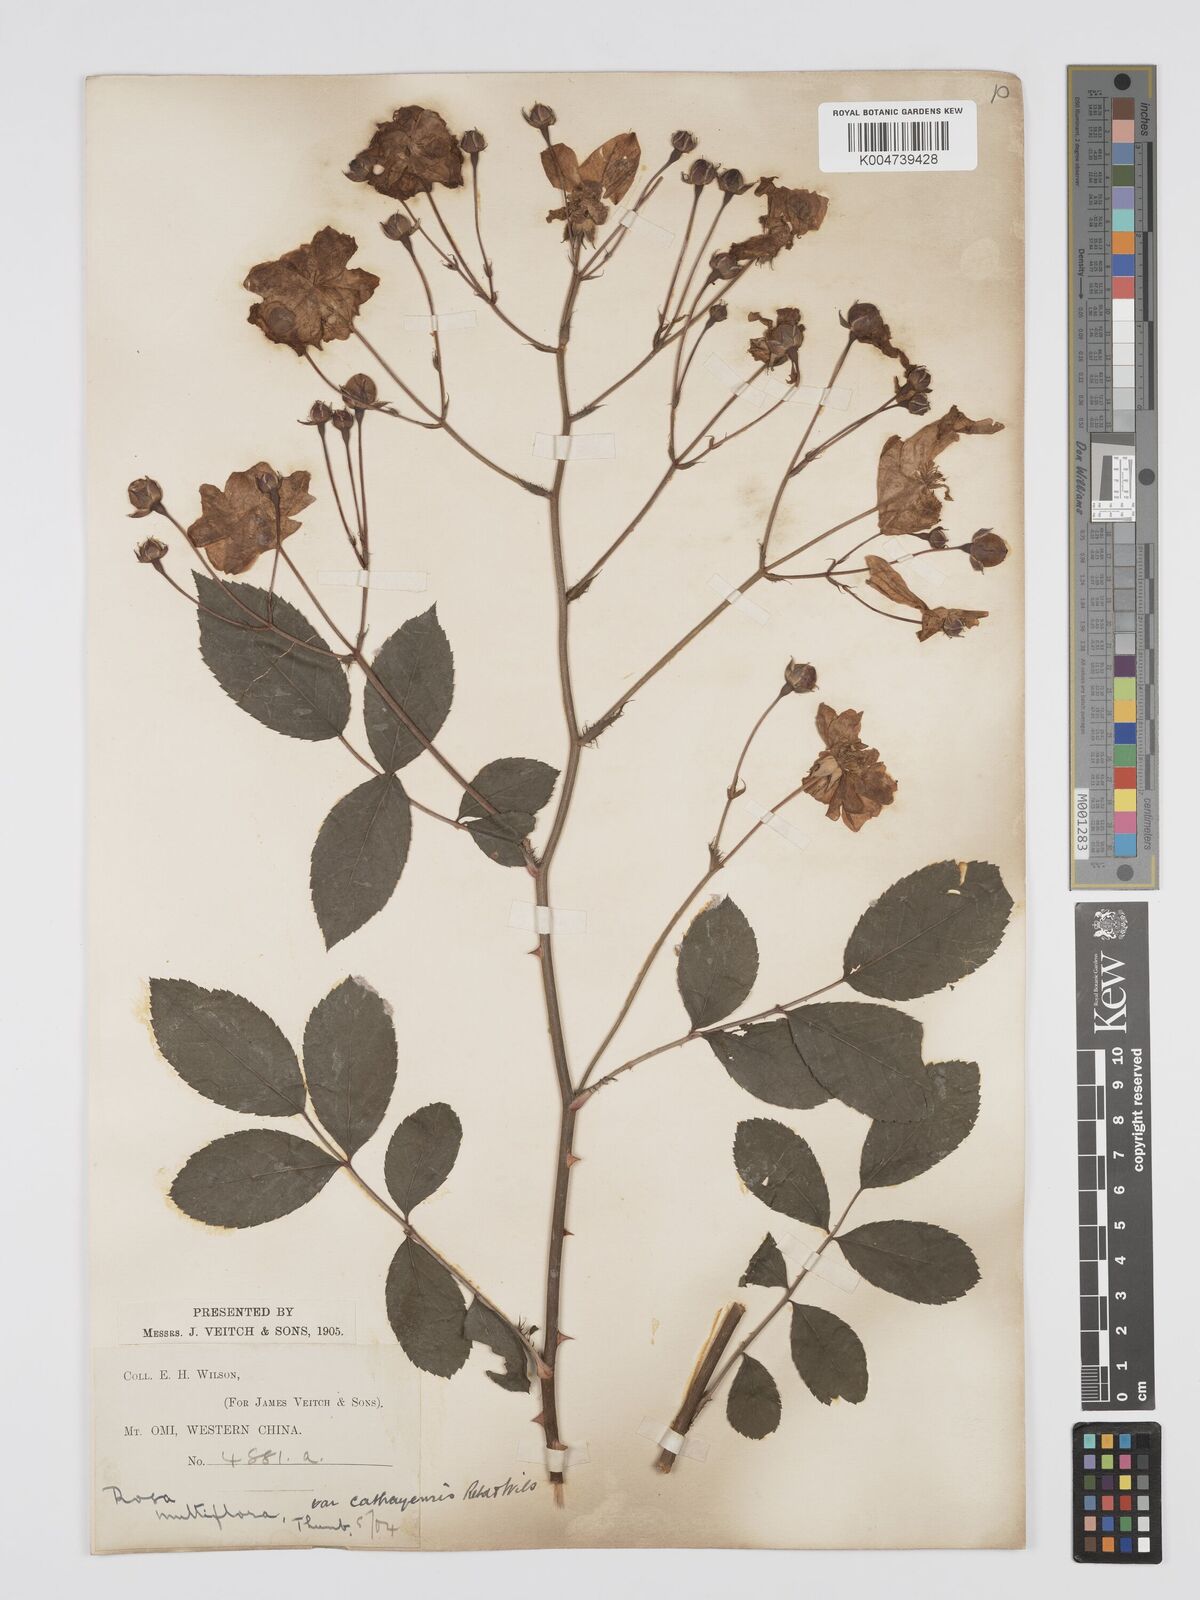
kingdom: Plantae
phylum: Tracheophyta
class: Magnoliopsida
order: Rosales
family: Rosaceae
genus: Rosa
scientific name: Rosa multiflora
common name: Multiflora rose
